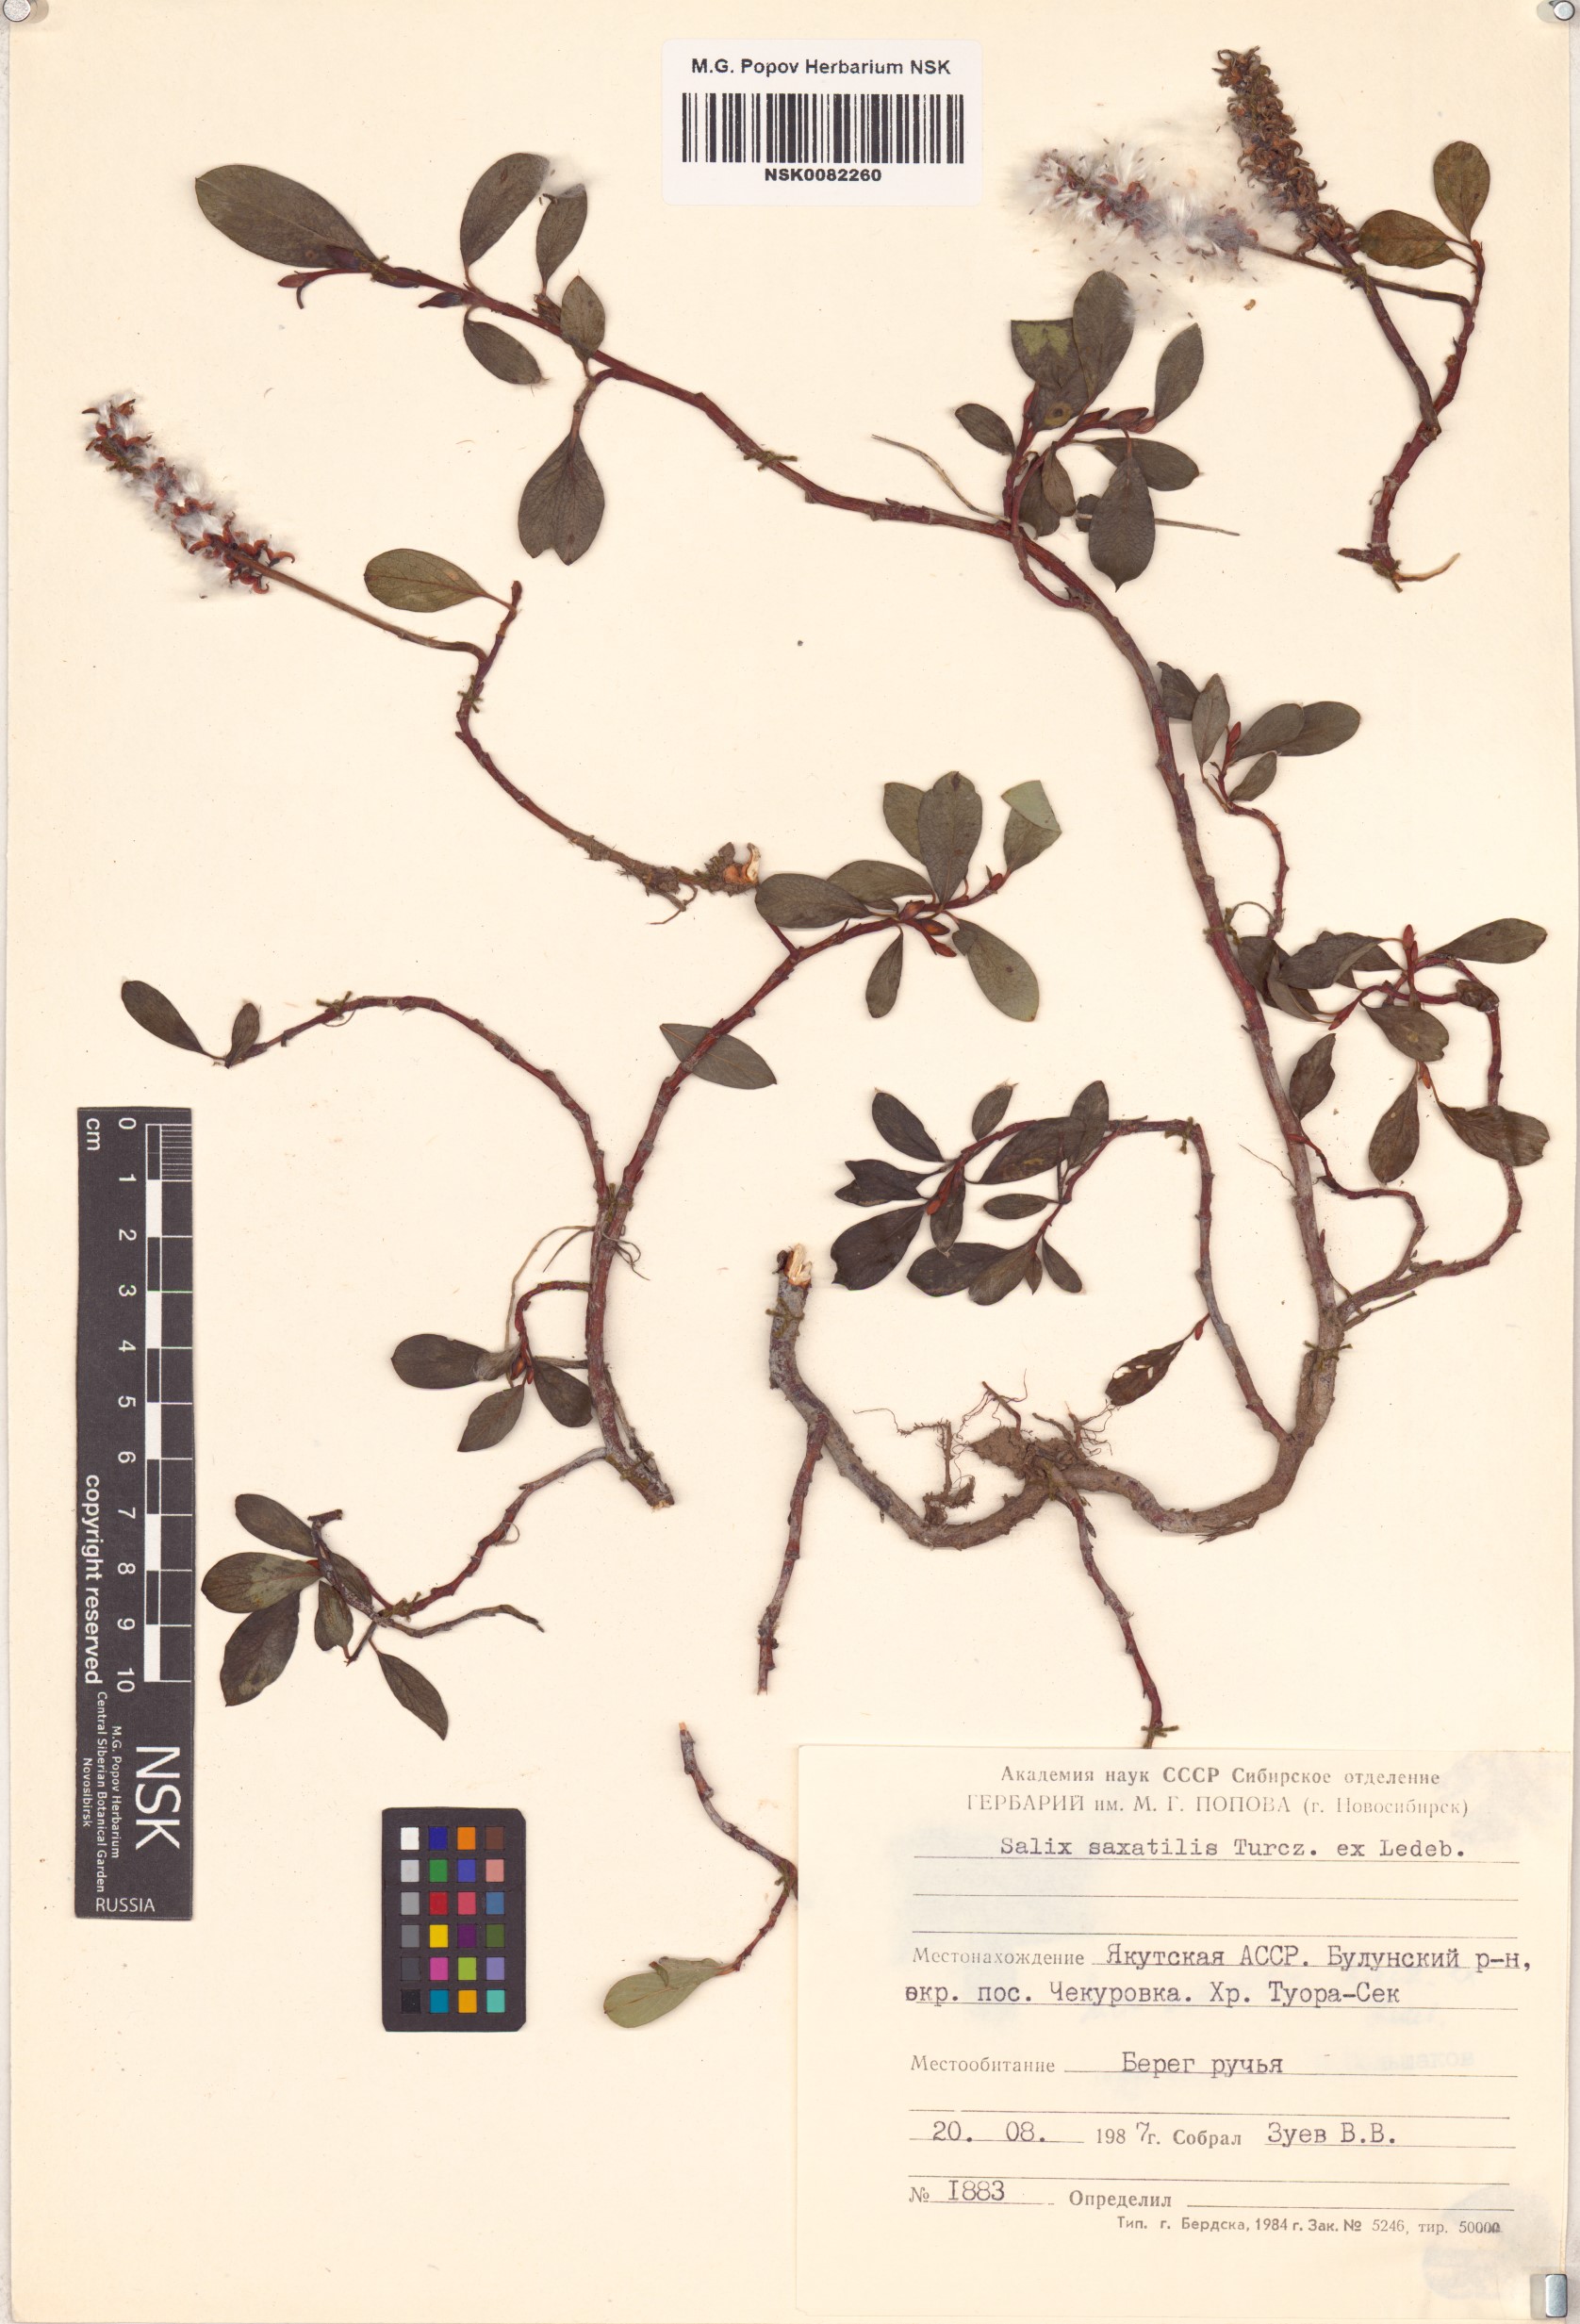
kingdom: Plantae
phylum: Tracheophyta
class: Magnoliopsida
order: Malpighiales
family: Salicaceae
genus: Salix
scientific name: Salix saxatilis
